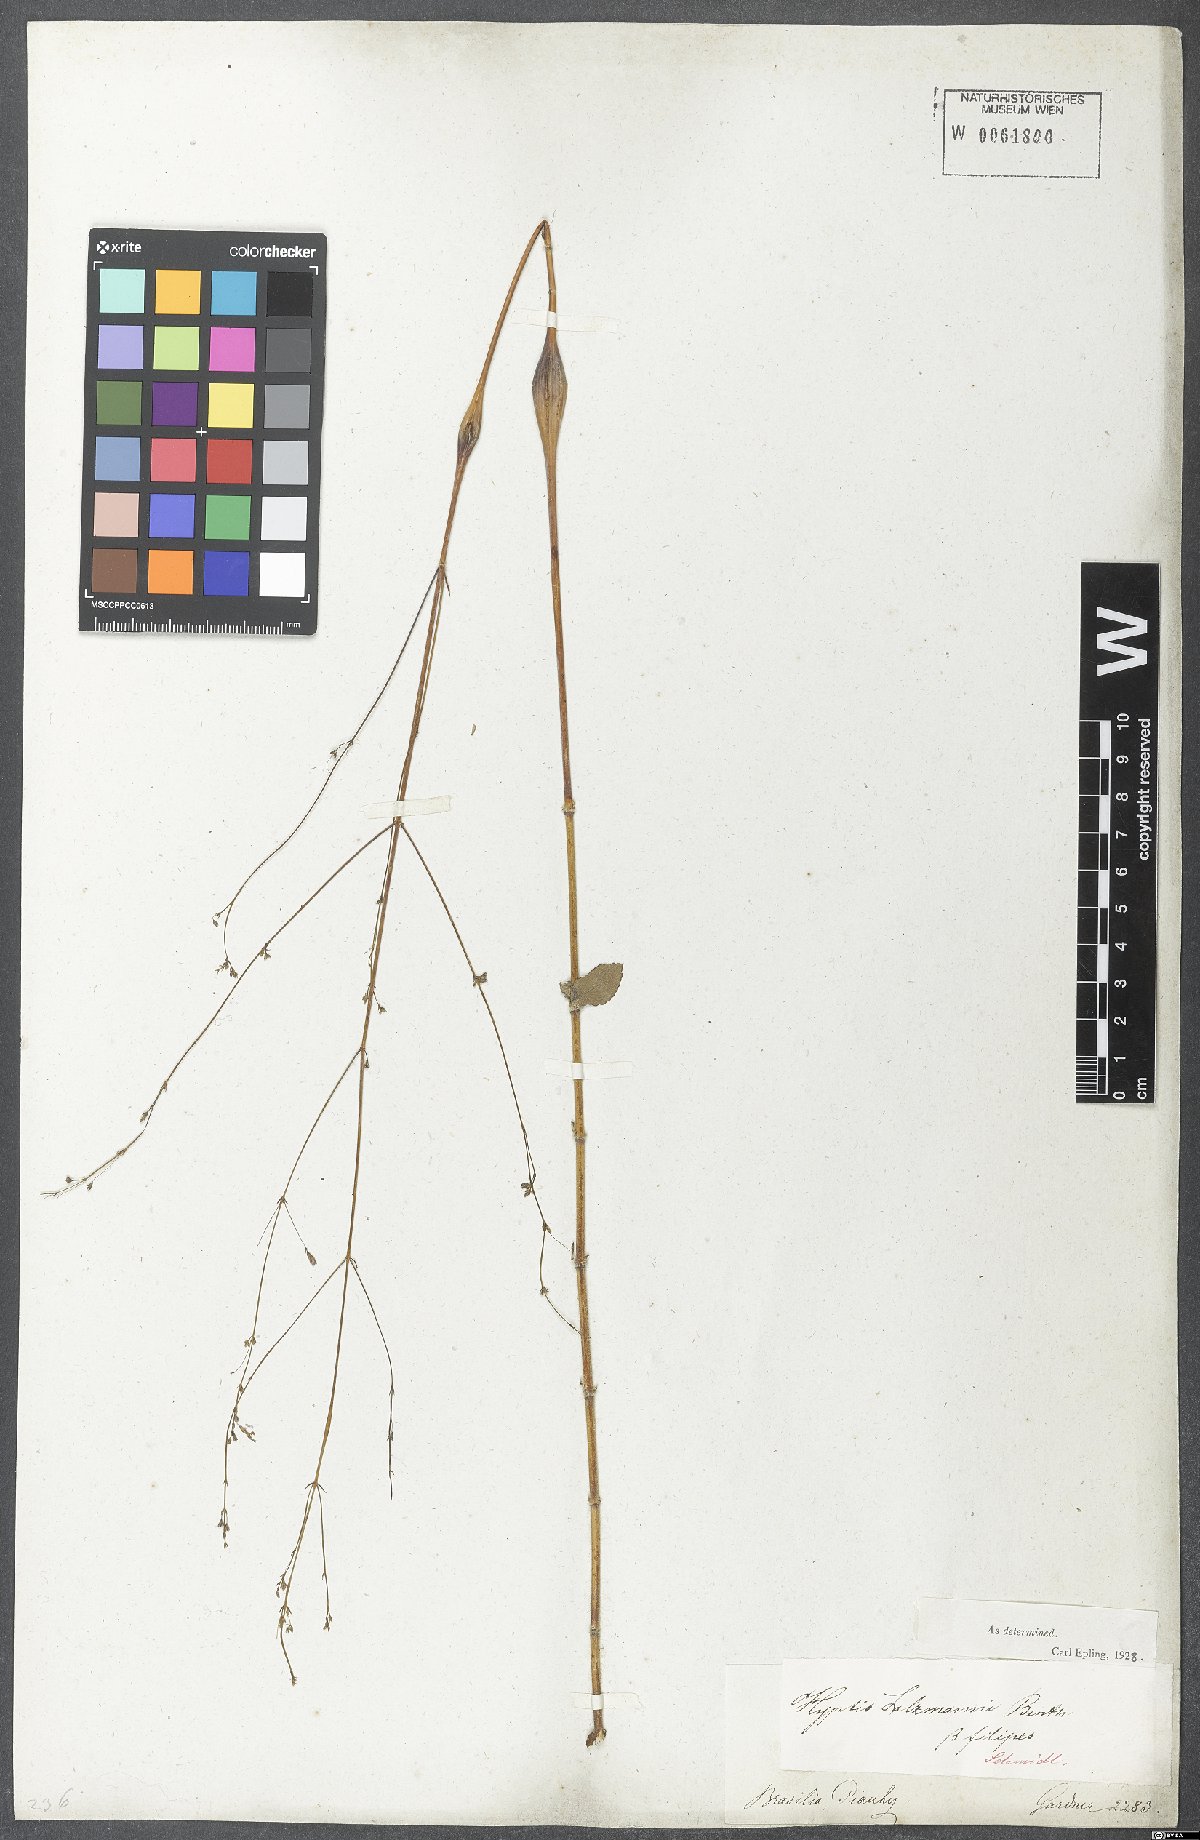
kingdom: Plantae
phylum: Tracheophyta
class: Magnoliopsida
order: Lamiales
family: Lamiaceae
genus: Hypenia
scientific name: Hypenia salzmannii
